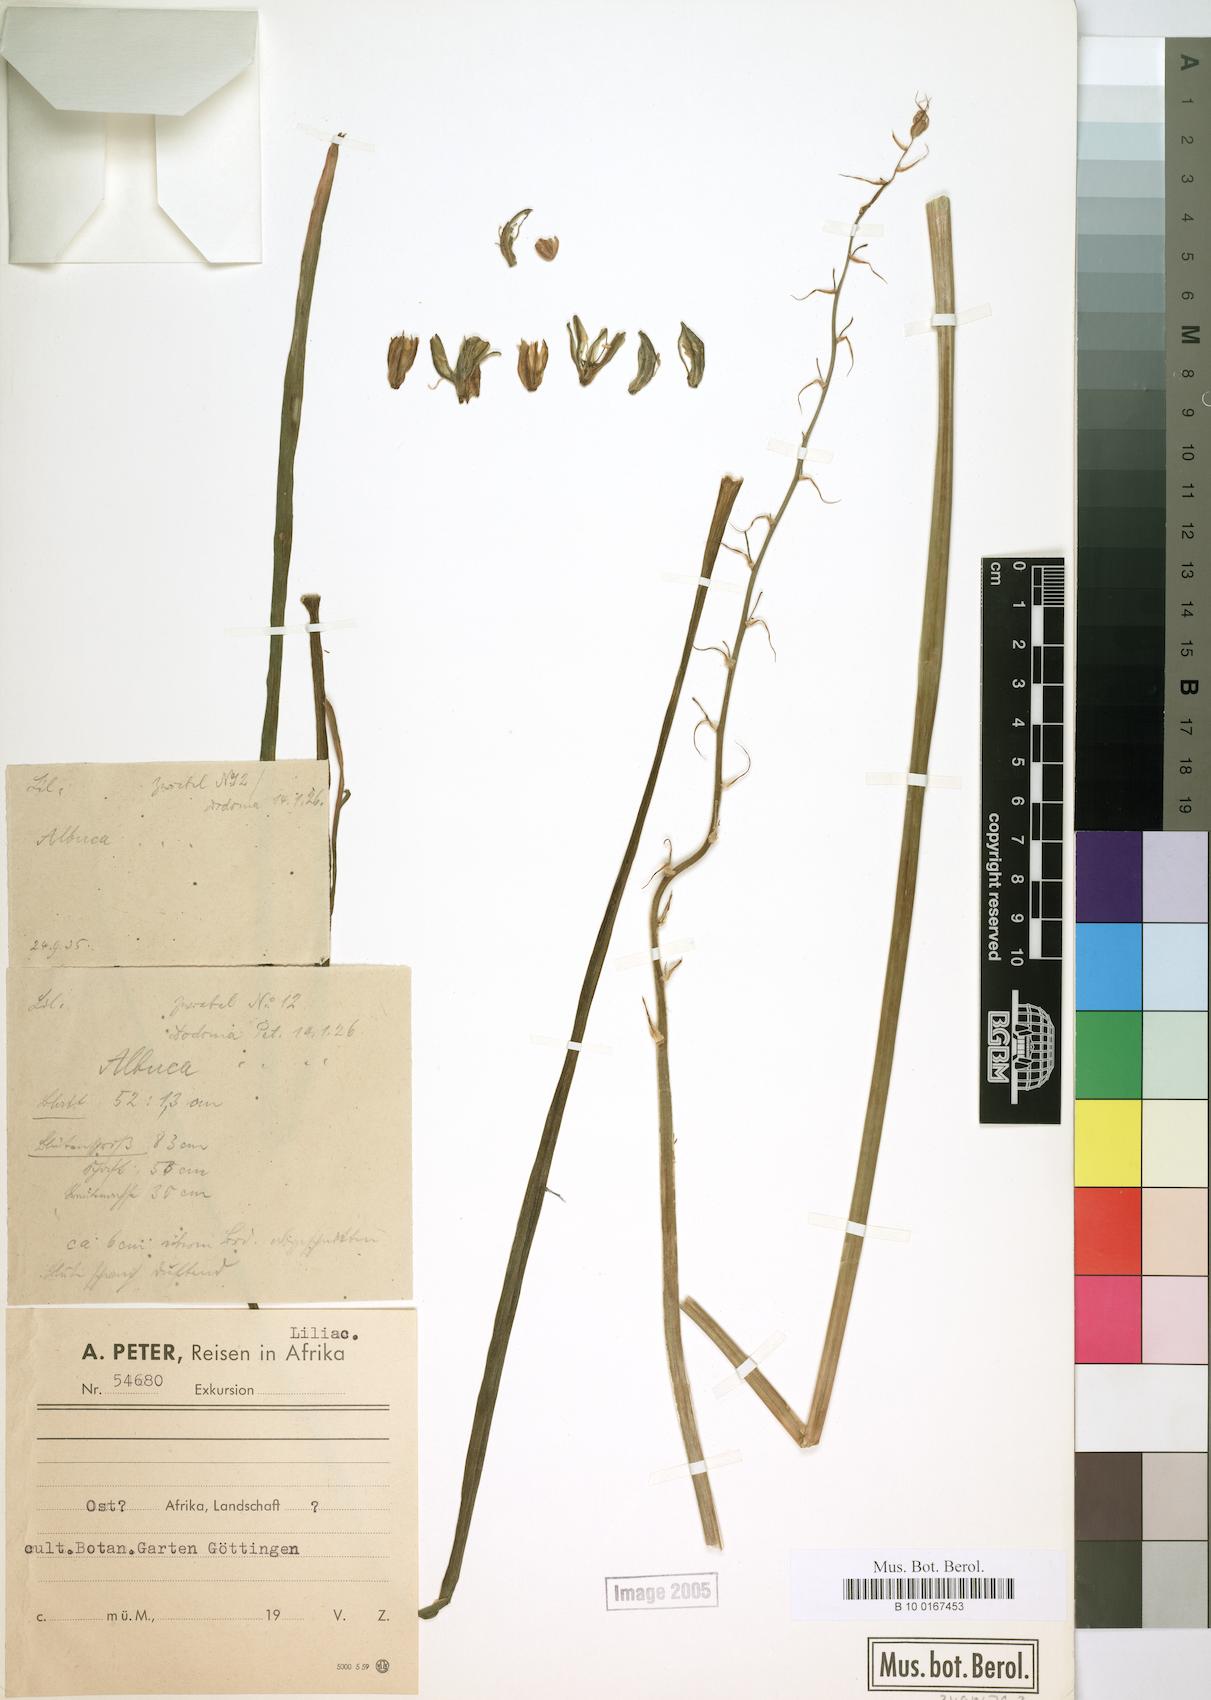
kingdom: Plantae
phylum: Tracheophyta
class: Liliopsida
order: Asparagales
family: Asparagaceae
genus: Albuca
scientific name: Albuca
